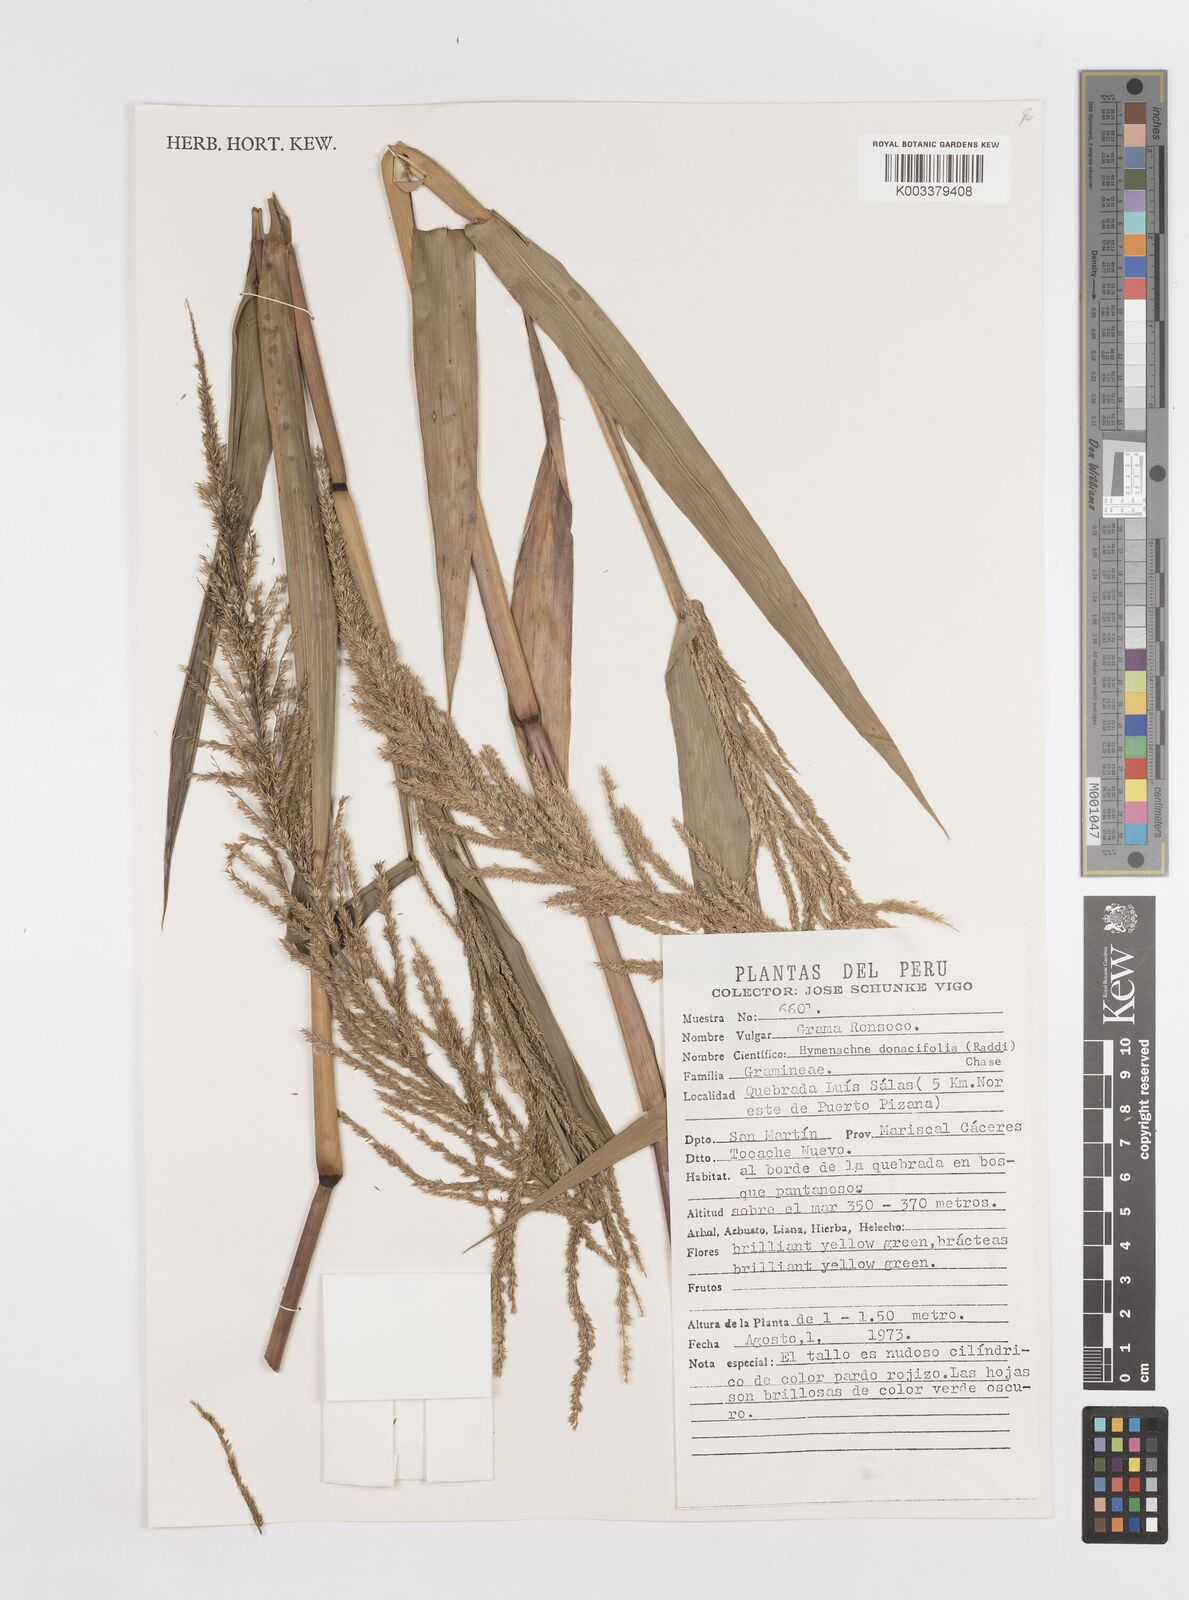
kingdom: Plantae
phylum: Tracheophyta
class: Liliopsida
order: Poales
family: Poaceae
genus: Hymenachne
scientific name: Hymenachne donacifolia
